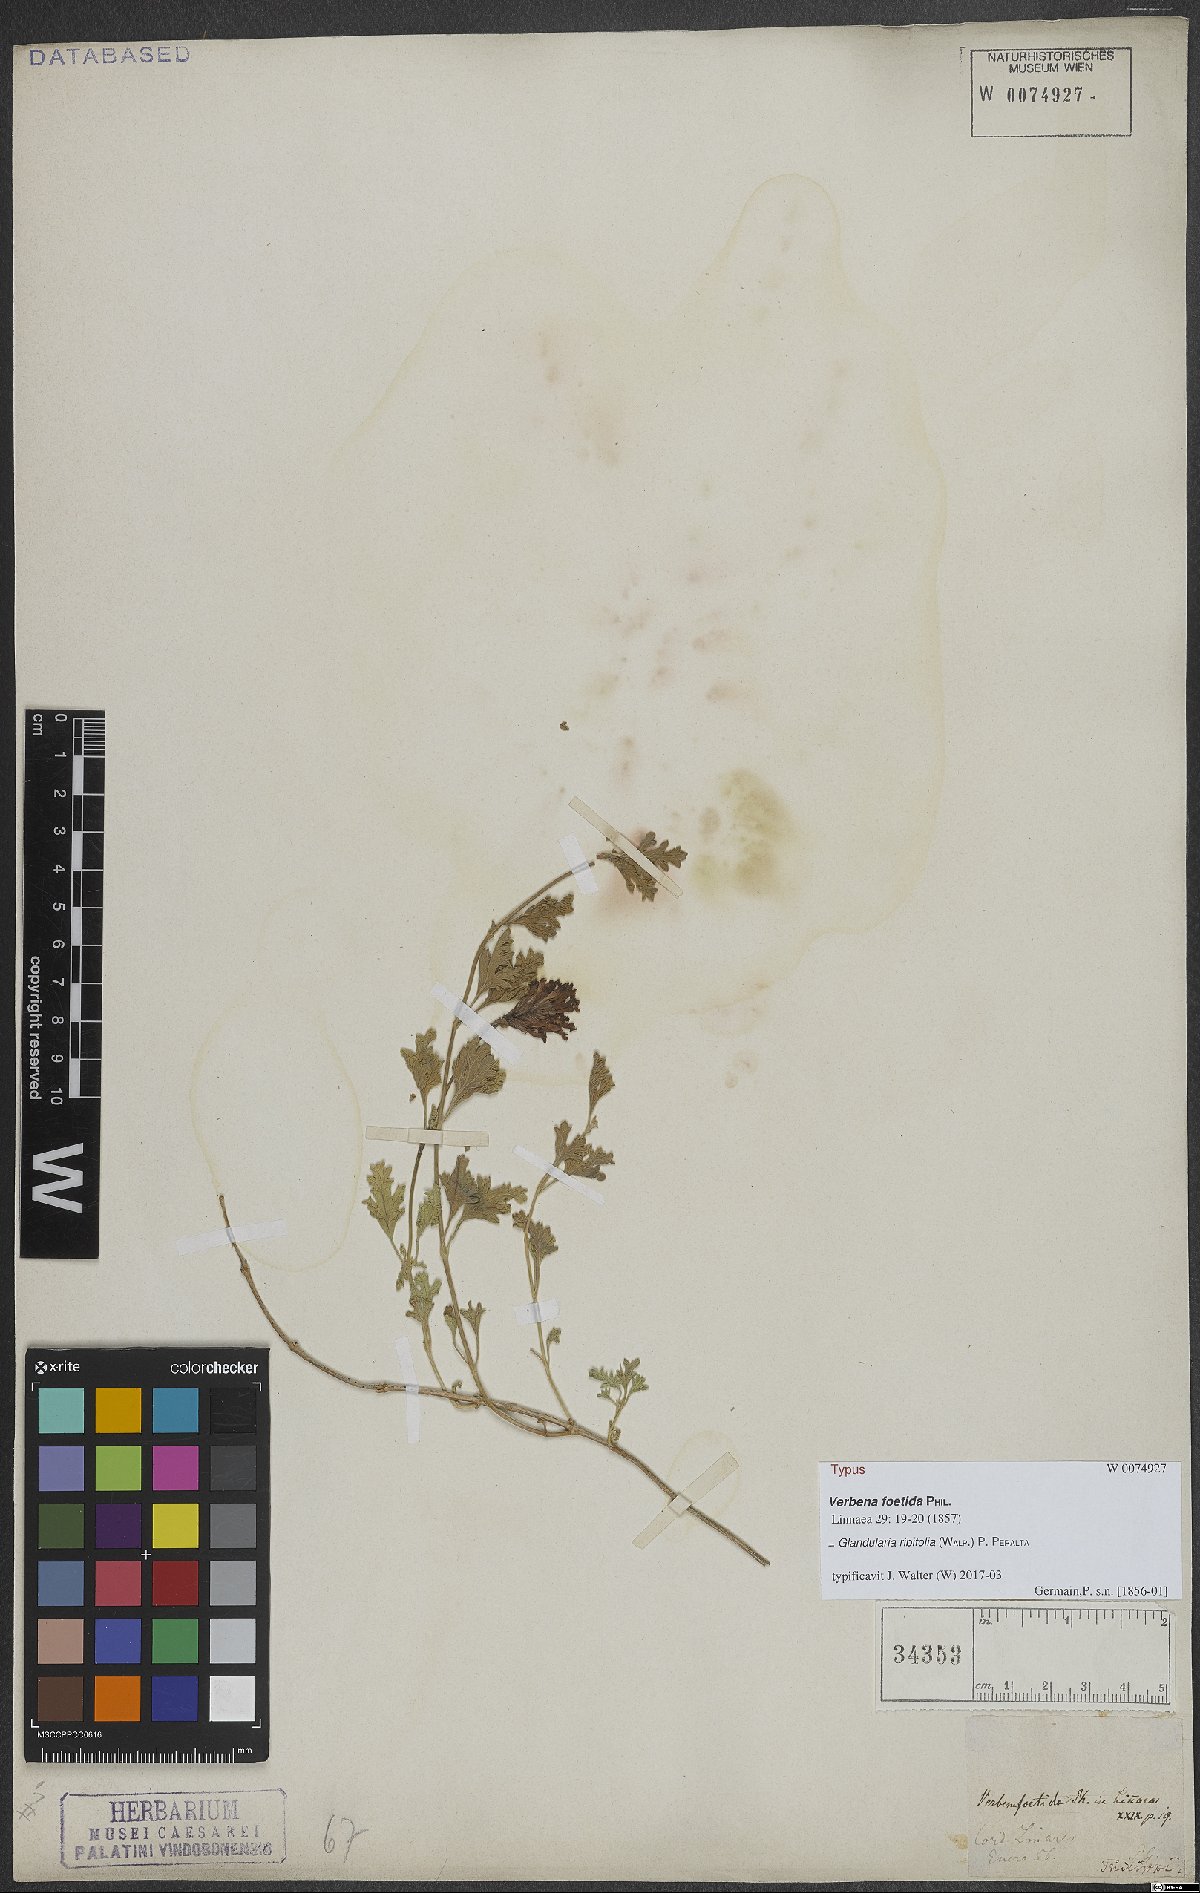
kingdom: Plantae
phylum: Tracheophyta
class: Magnoliopsida
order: Lamiales
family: Verbenaceae
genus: Verbena
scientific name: Verbena ribifolia
